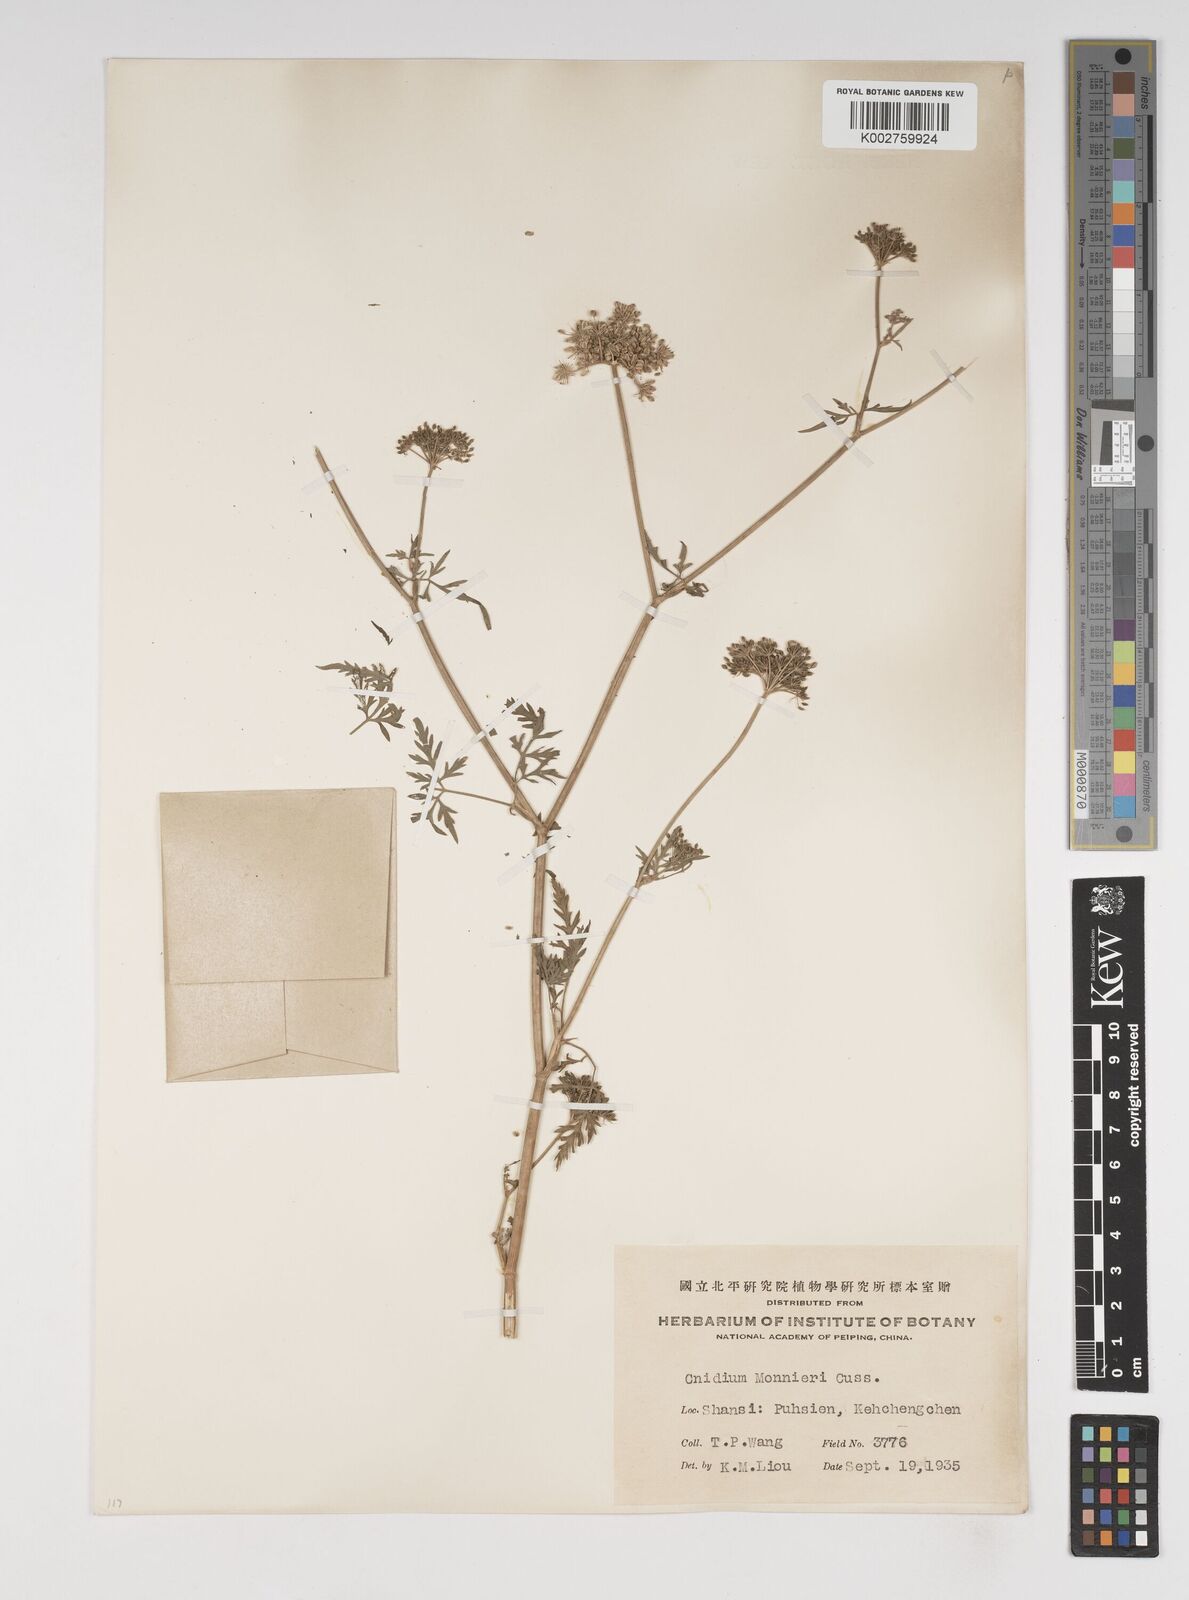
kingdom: Plantae
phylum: Tracheophyta
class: Magnoliopsida
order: Apiales
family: Apiaceae
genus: Cnidium
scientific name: Cnidium monnieri
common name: Monnier's snowparsley
